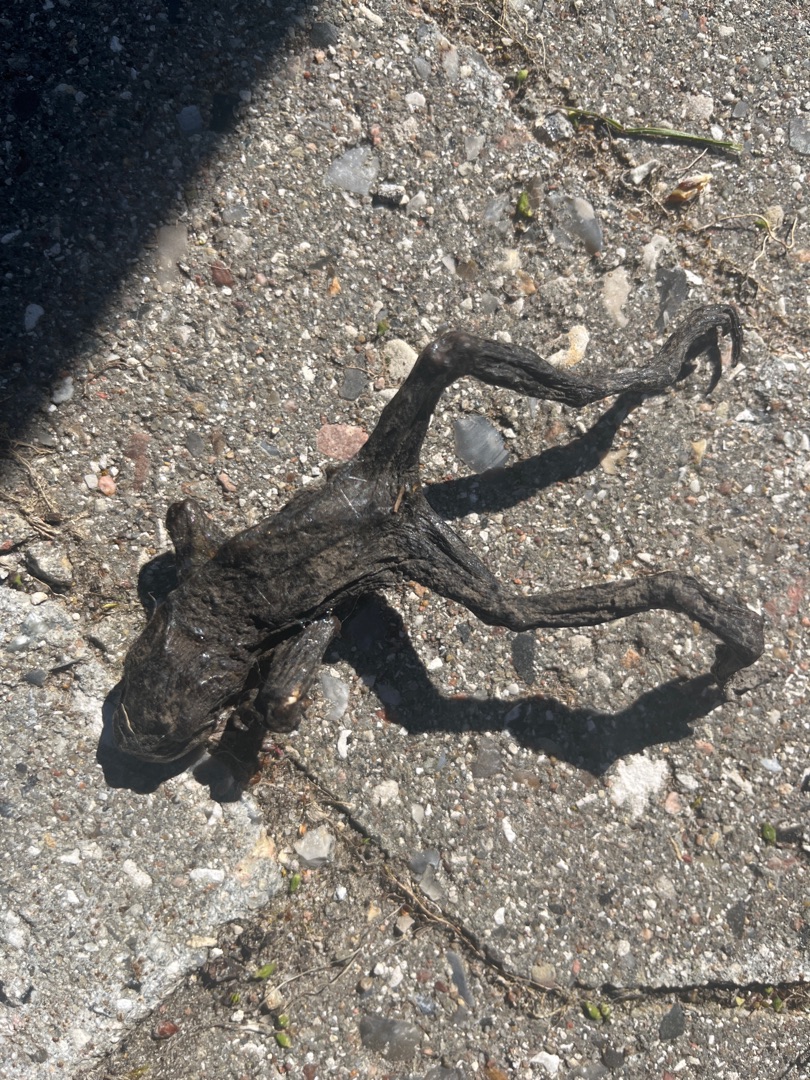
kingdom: Animalia
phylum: Chordata
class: Amphibia
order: Anura
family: Bufonidae
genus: Bufo
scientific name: Bufo bufo
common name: Skrubtudse
